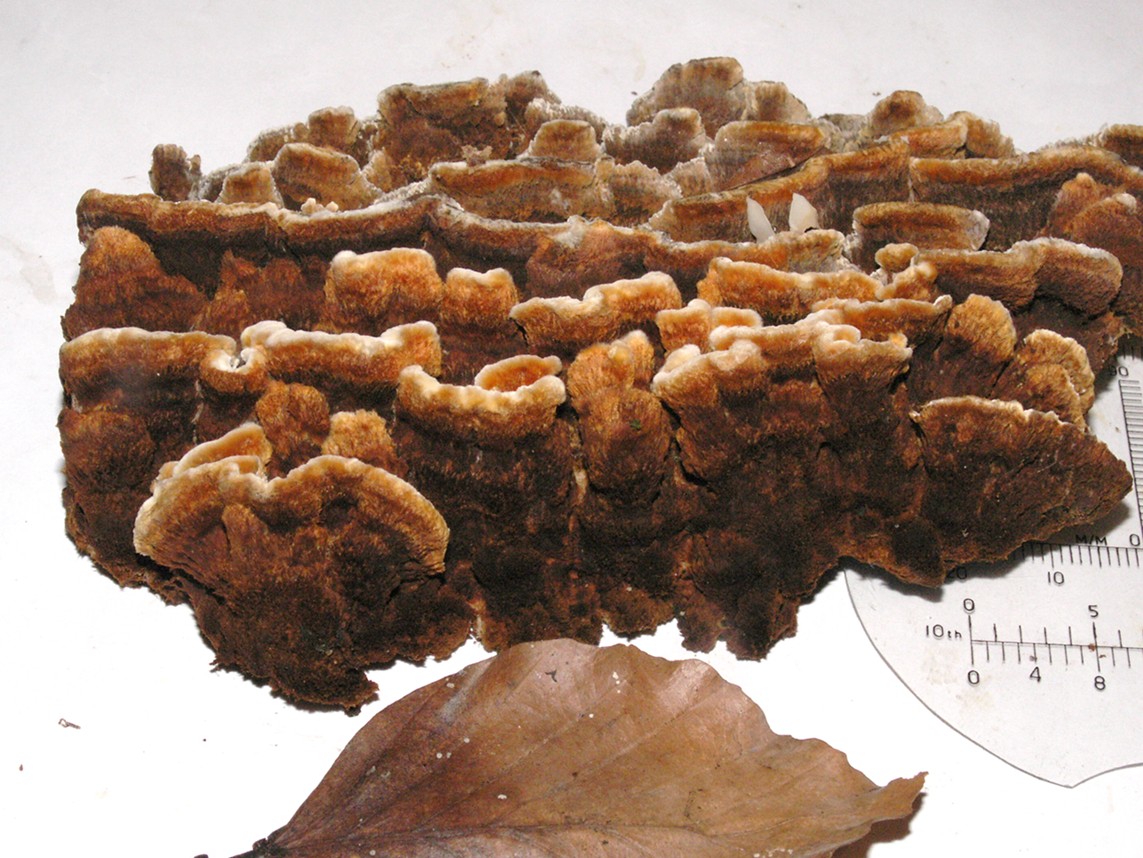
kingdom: Fungi
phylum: Basidiomycota
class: Agaricomycetes
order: Hymenochaetales
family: Hymenochaetaceae
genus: Mensularia
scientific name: Mensularia nodulosa
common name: bøge-spejlporesvamp
